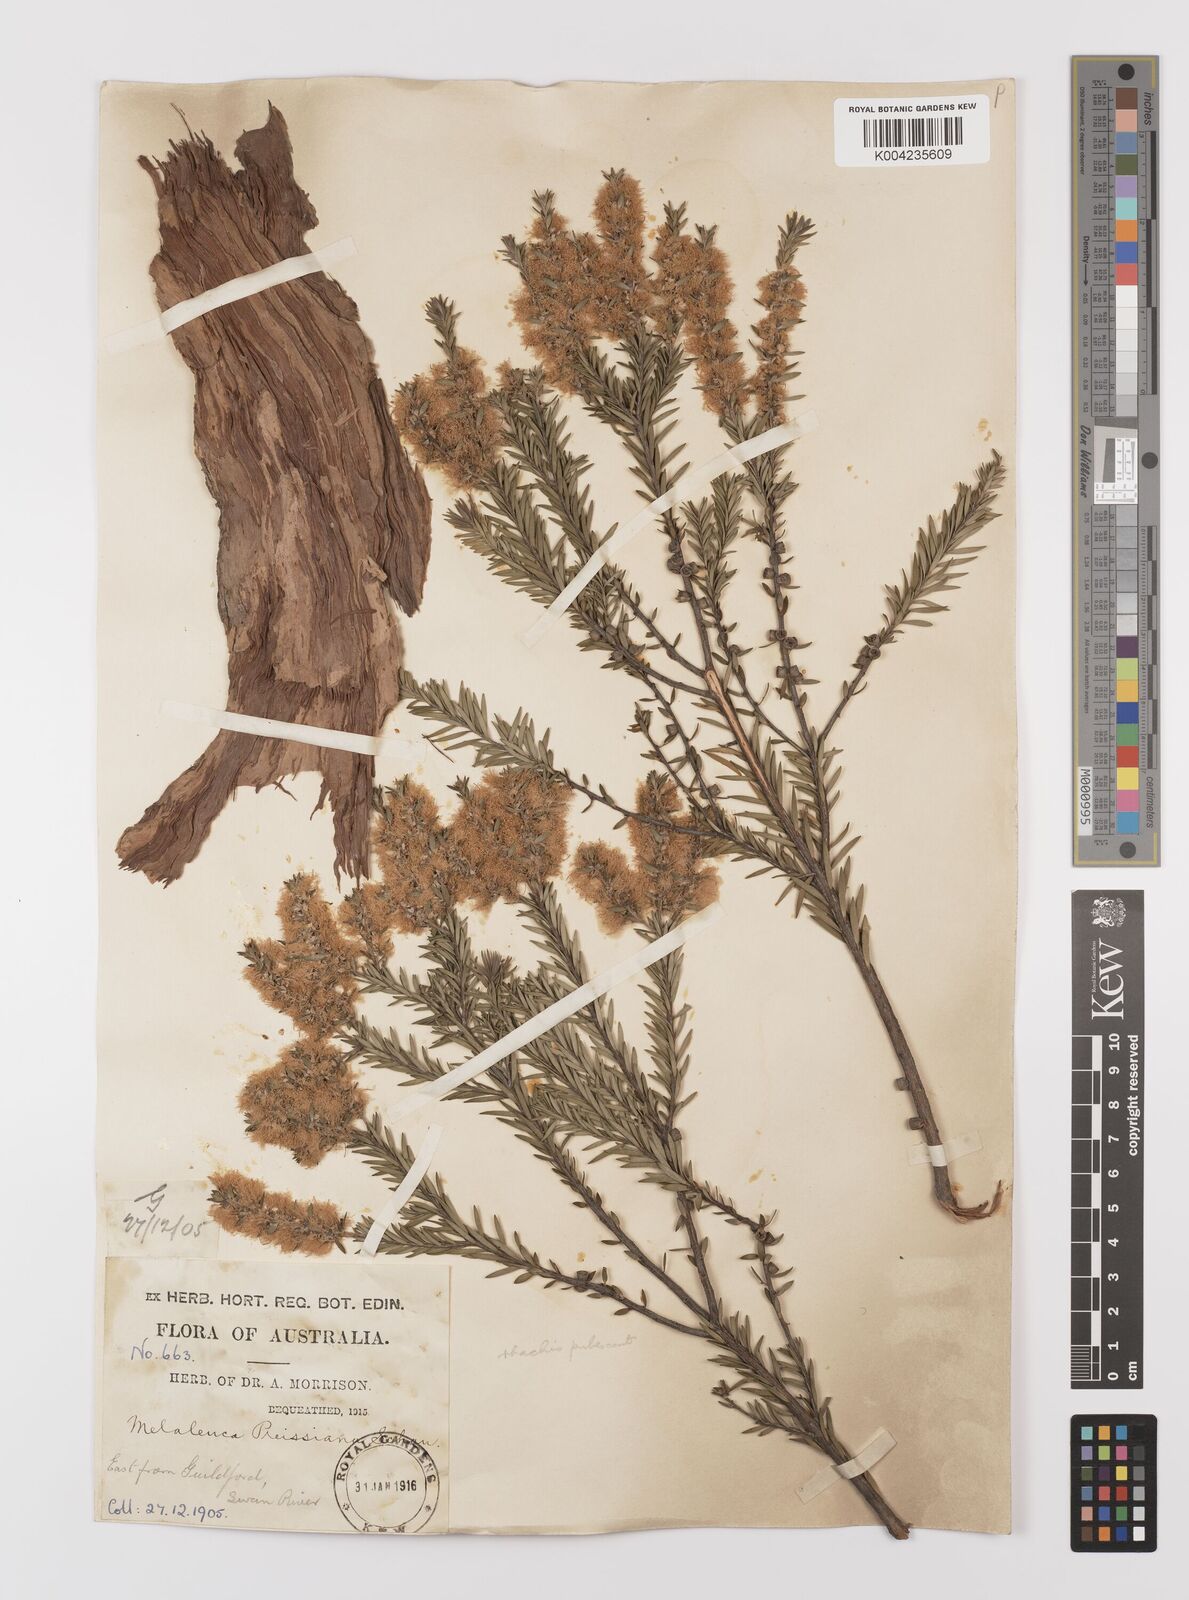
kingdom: Plantae
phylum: Tracheophyta
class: Magnoliopsida
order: Myrtales
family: Myrtaceae
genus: Melaleuca
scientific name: Melaleuca preissiana
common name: Preiss's paperbark
